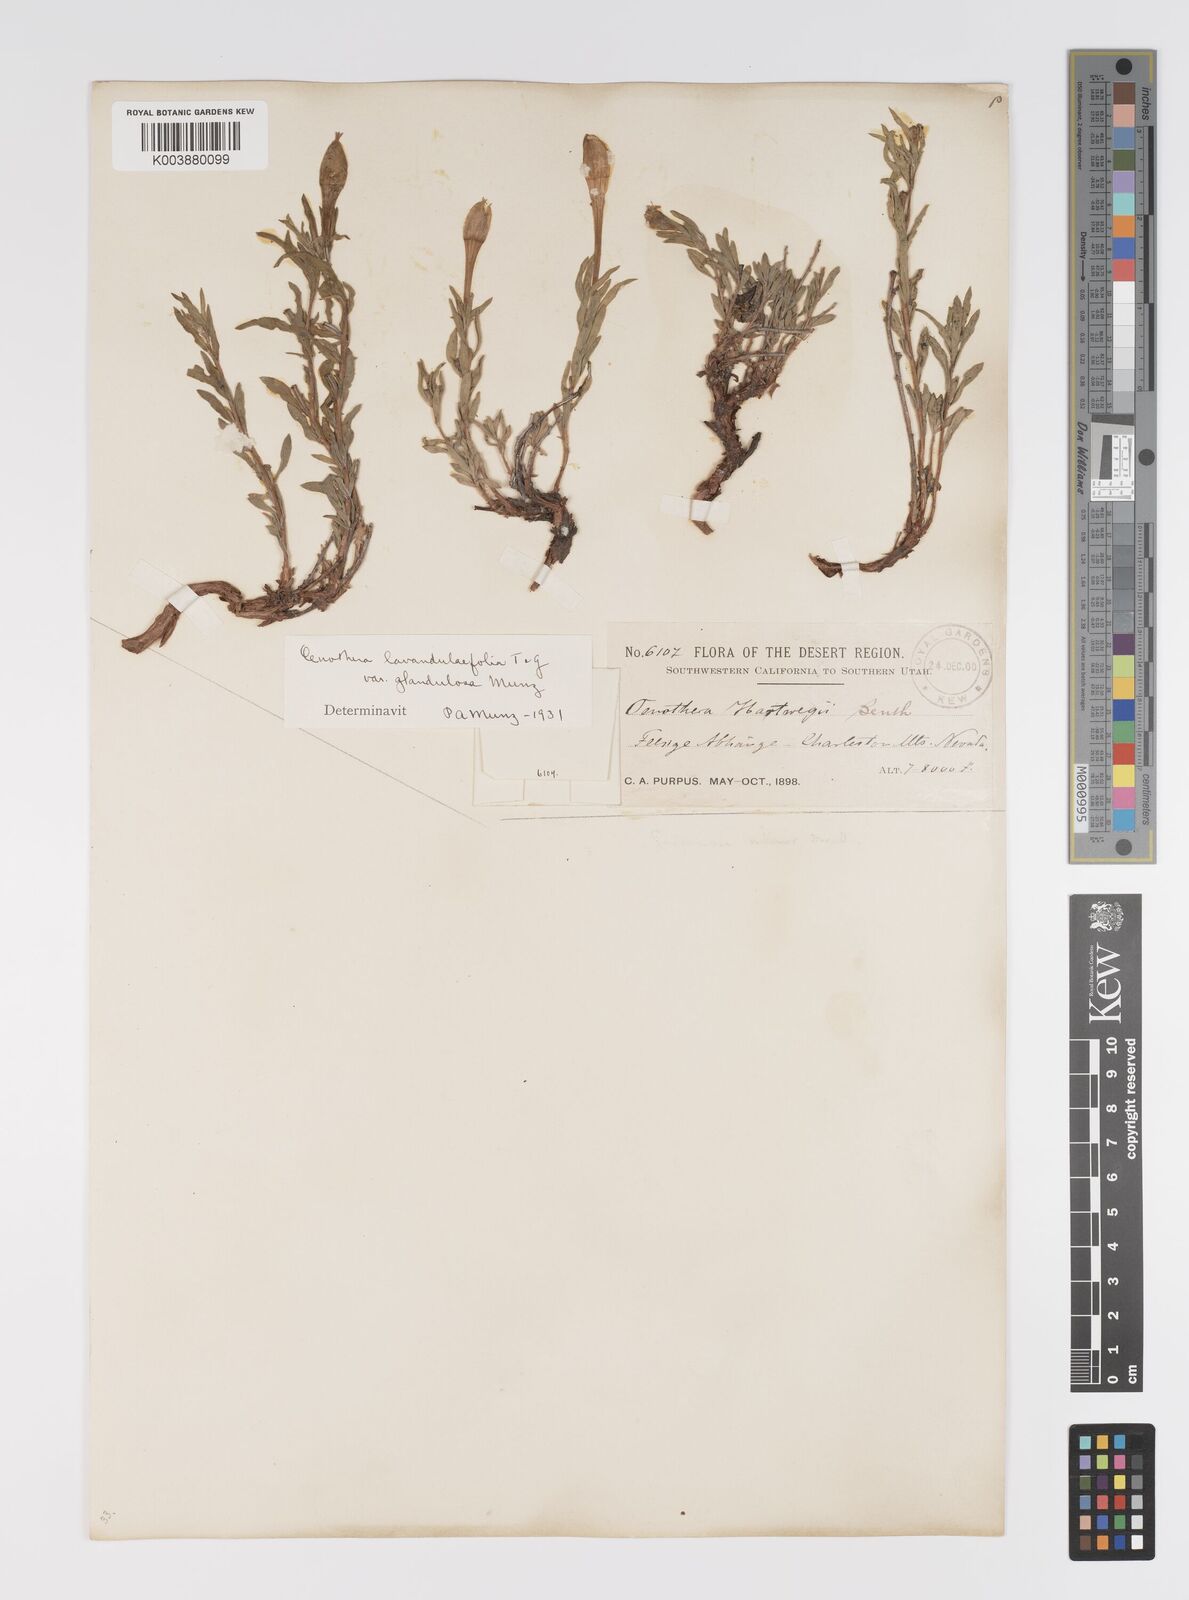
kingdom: Plantae
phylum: Tracheophyta
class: Magnoliopsida
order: Myrtales
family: Onagraceae
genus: Oenothera
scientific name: Oenothera lavandulifolia
